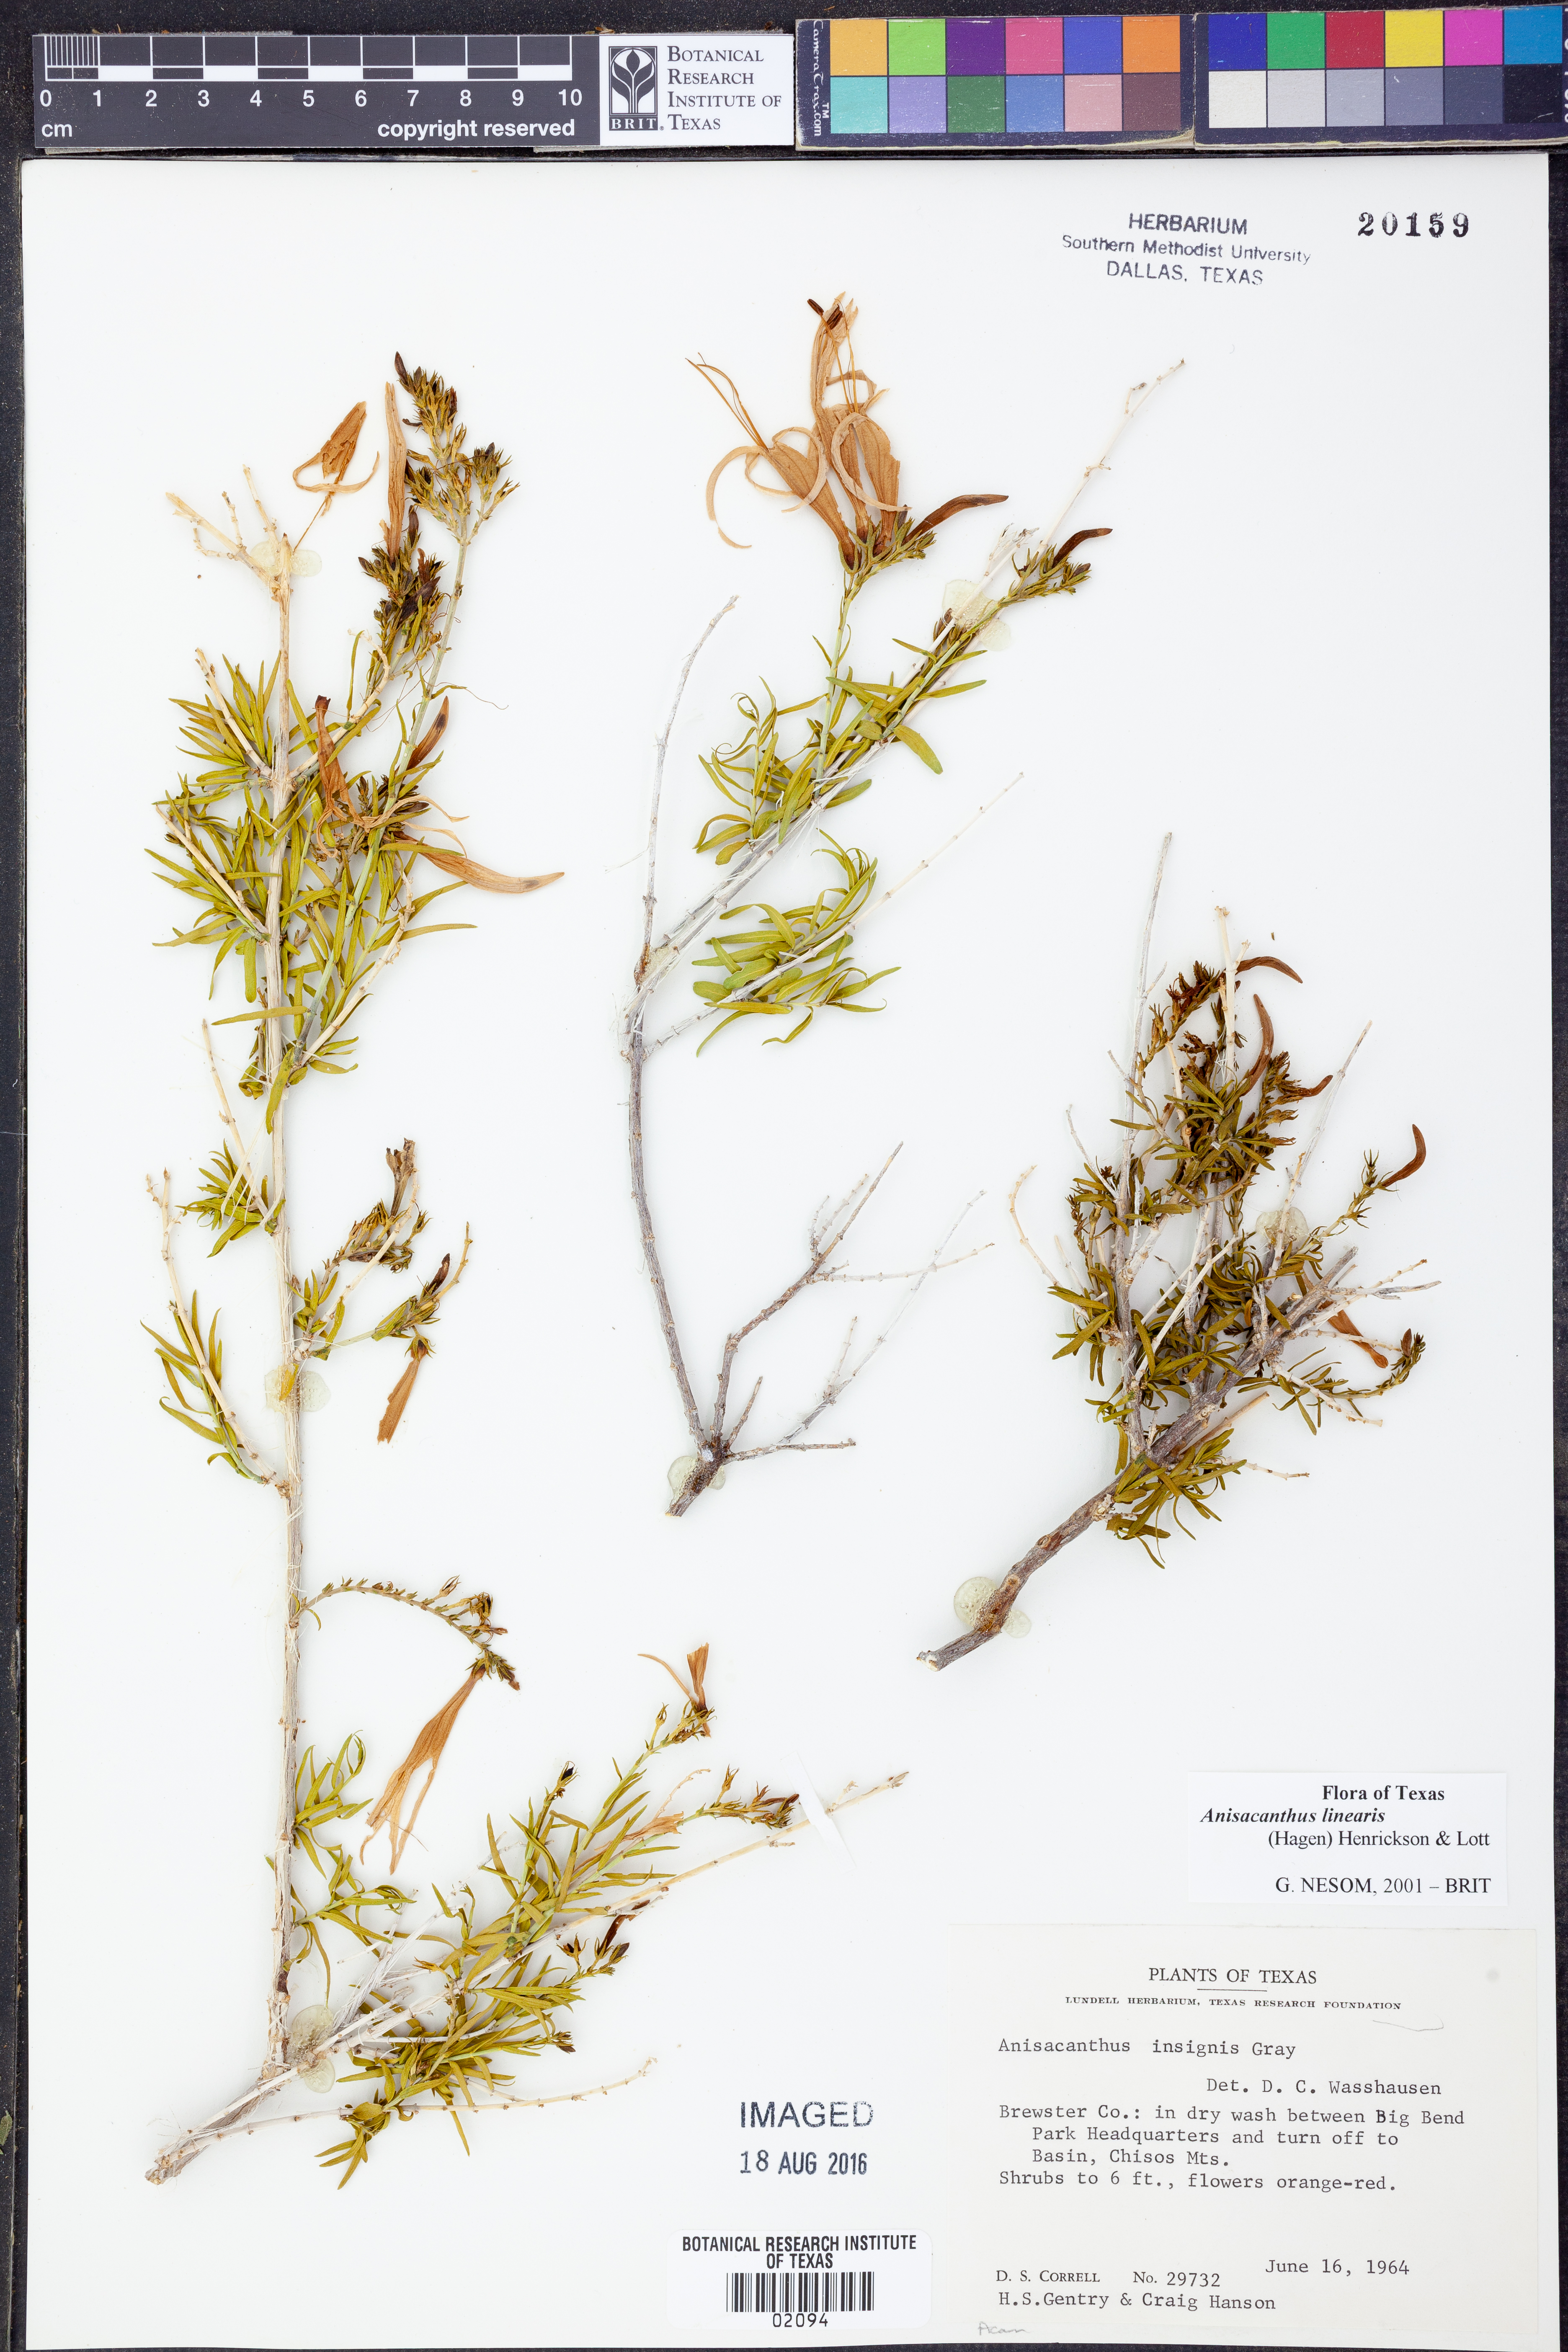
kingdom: Plantae
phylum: Tracheophyta
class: Magnoliopsida
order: Lamiales
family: Acanthaceae
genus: Anisacanthus
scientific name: Anisacanthus linearis
